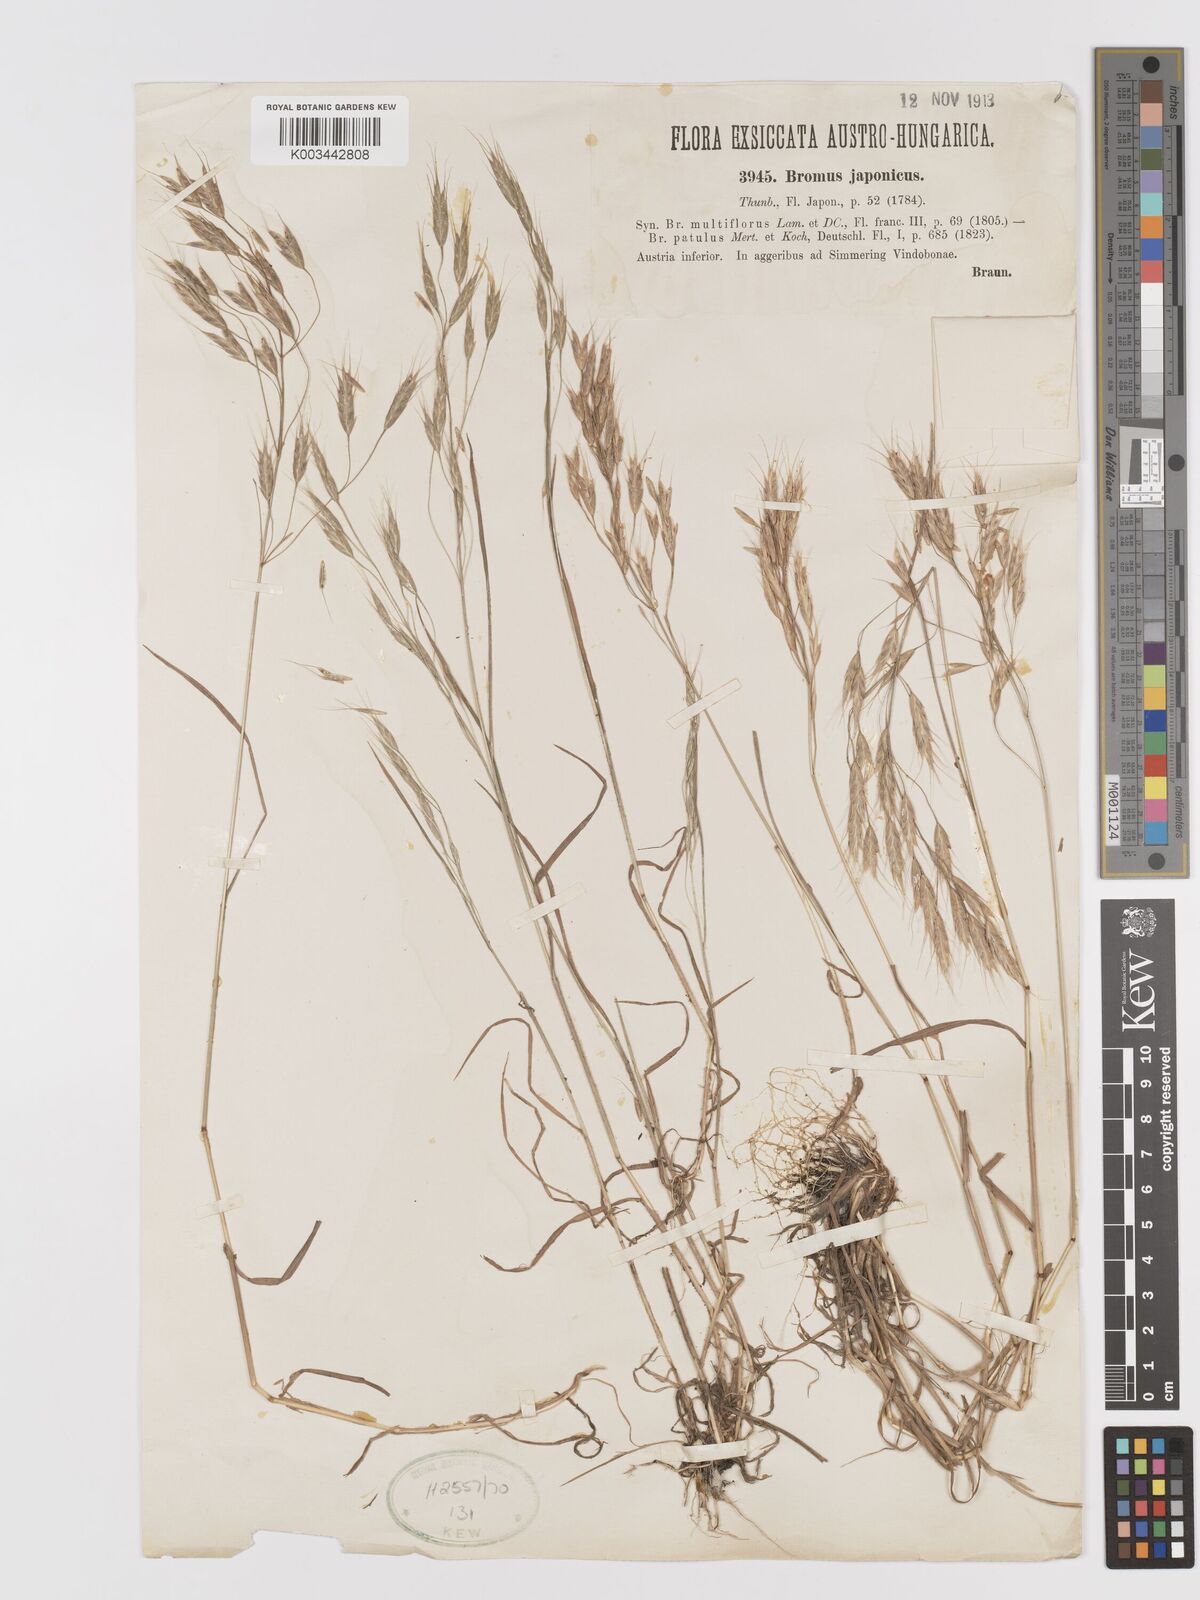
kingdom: Plantae
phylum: Tracheophyta
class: Liliopsida
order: Poales
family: Poaceae
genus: Bromus
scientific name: Bromus japonicus
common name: Japanese brome
